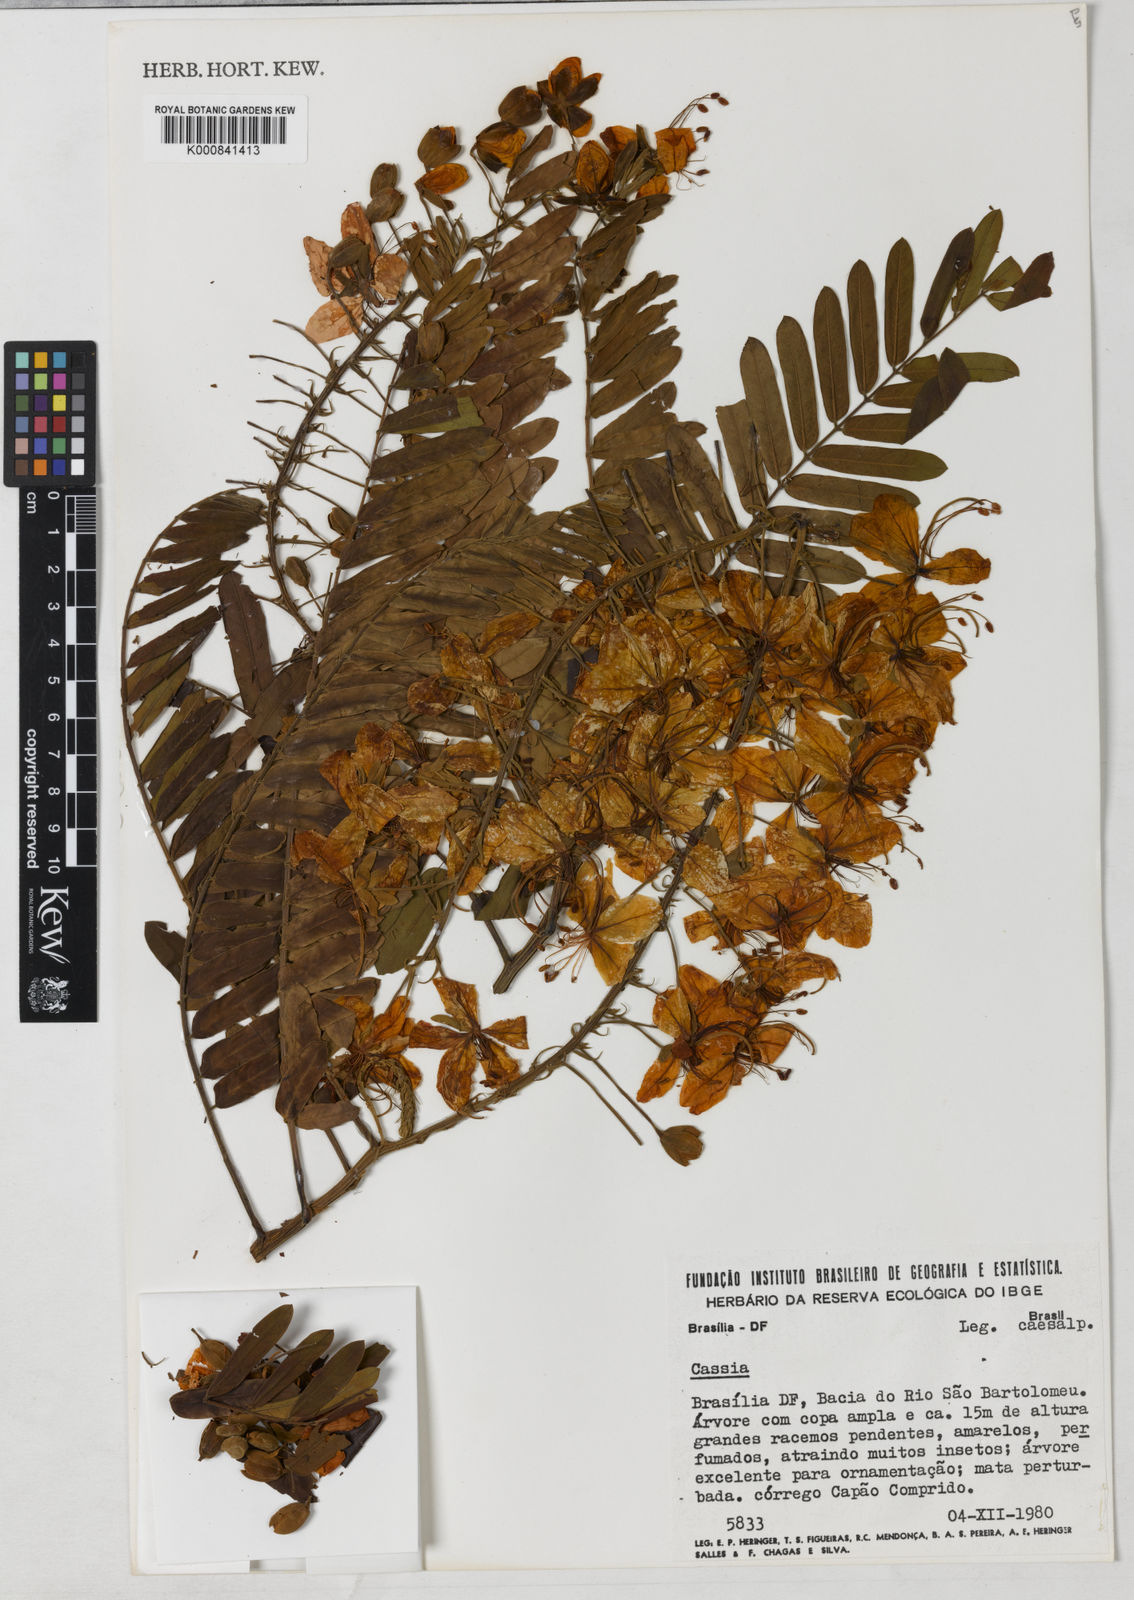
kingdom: Plantae
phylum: Tracheophyta
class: Magnoliopsida
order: Fabales
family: Fabaceae
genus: Cassia
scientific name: Cassia
